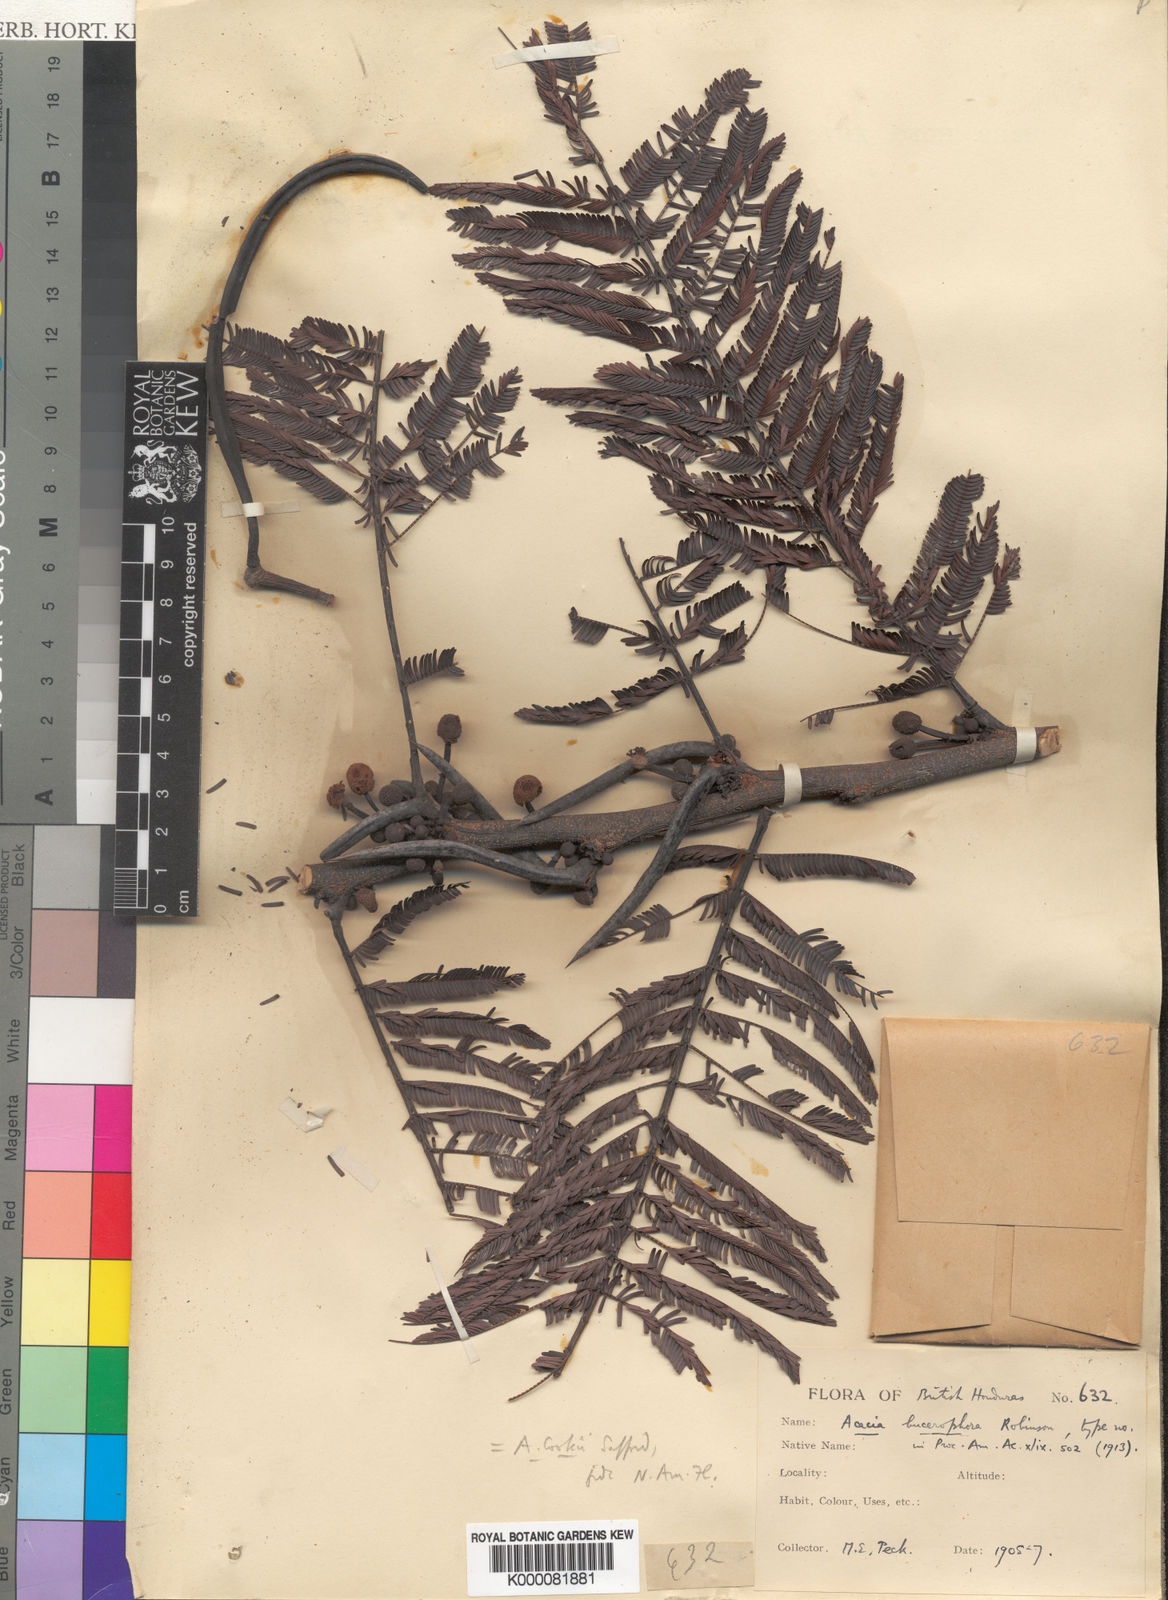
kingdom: Plantae
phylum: Tracheophyta
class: Magnoliopsida
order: Fabales
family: Fabaceae
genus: Vachellia
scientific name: Vachellia cookii
